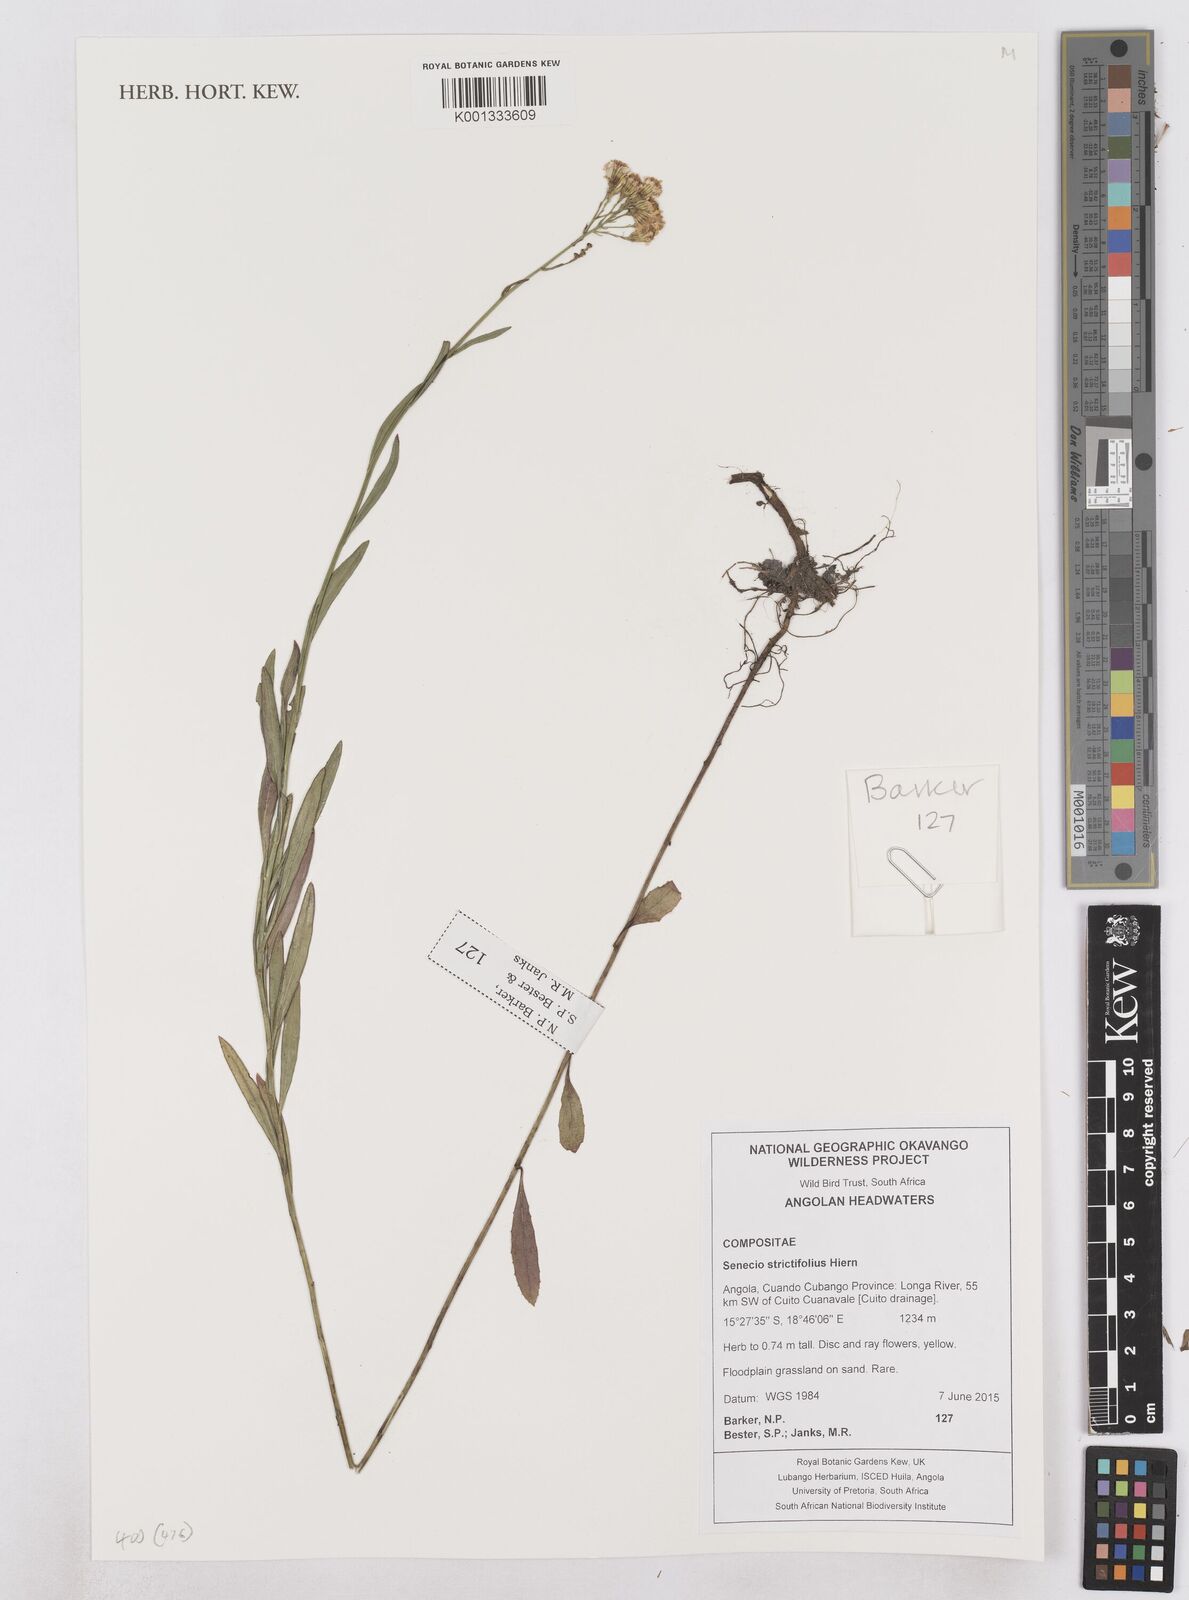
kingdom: Plantae
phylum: Tracheophyta
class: Magnoliopsida
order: Asterales
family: Asteraceae
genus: Senecio
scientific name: Senecio strictifolius
